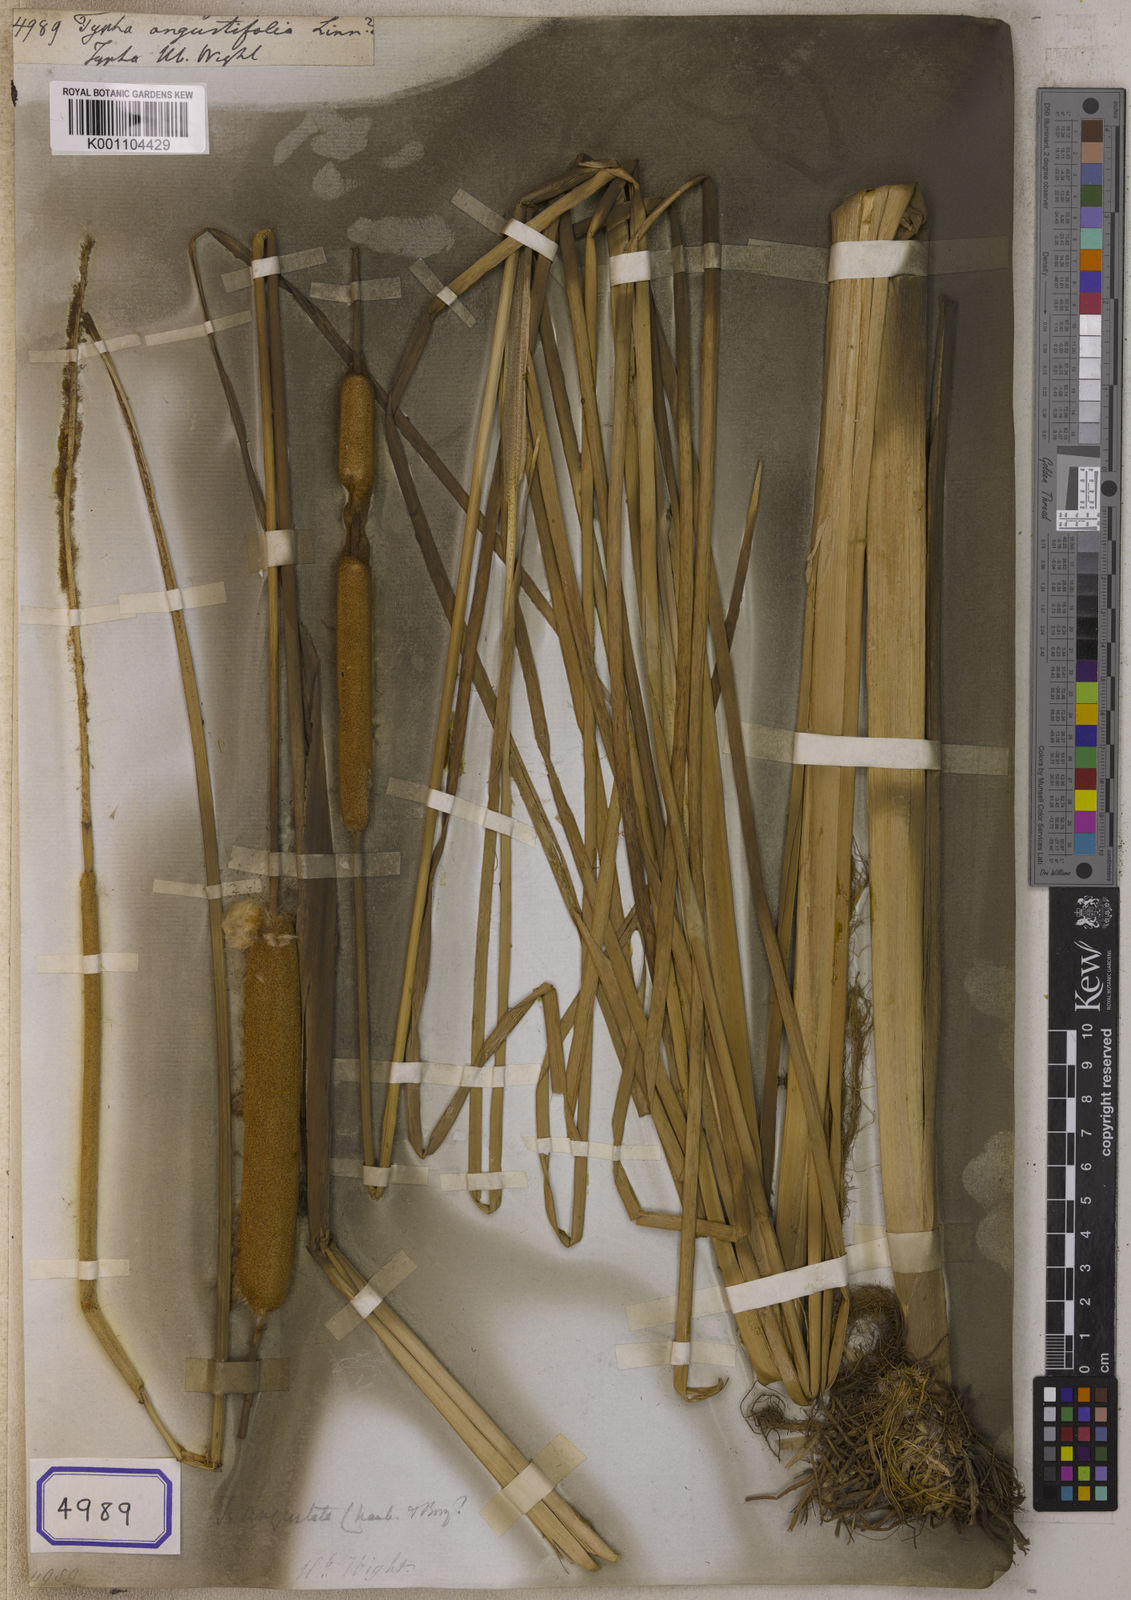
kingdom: Plantae
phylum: Tracheophyta
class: Liliopsida
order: Poales
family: Typhaceae
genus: Typha
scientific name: Typha angustifolia
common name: Lesser bulrush
